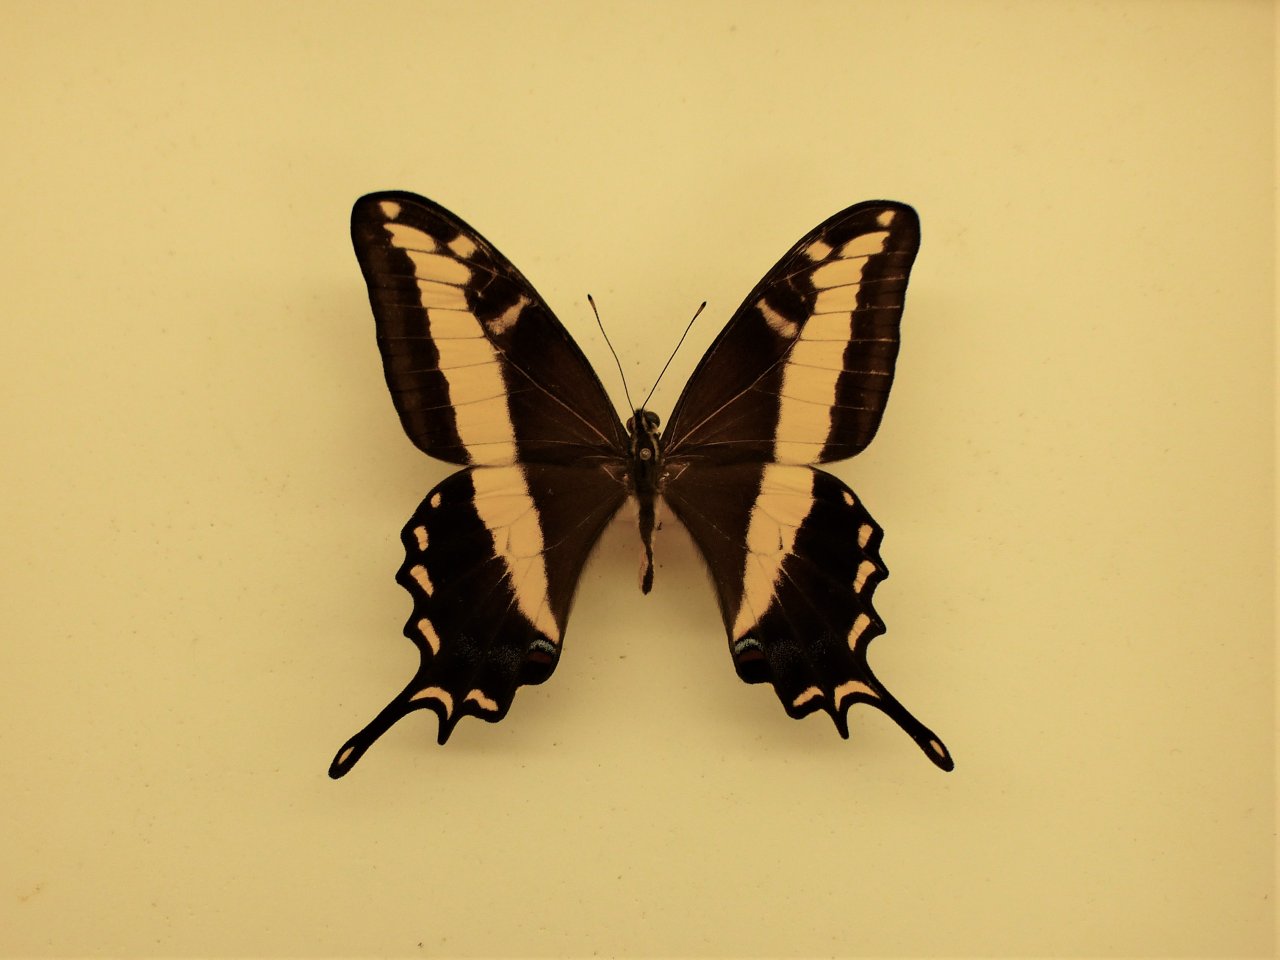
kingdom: Animalia
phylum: Arthropoda
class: Insecta
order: Lepidoptera
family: Papilionidae
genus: Papilio
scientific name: Papilio andraemon
